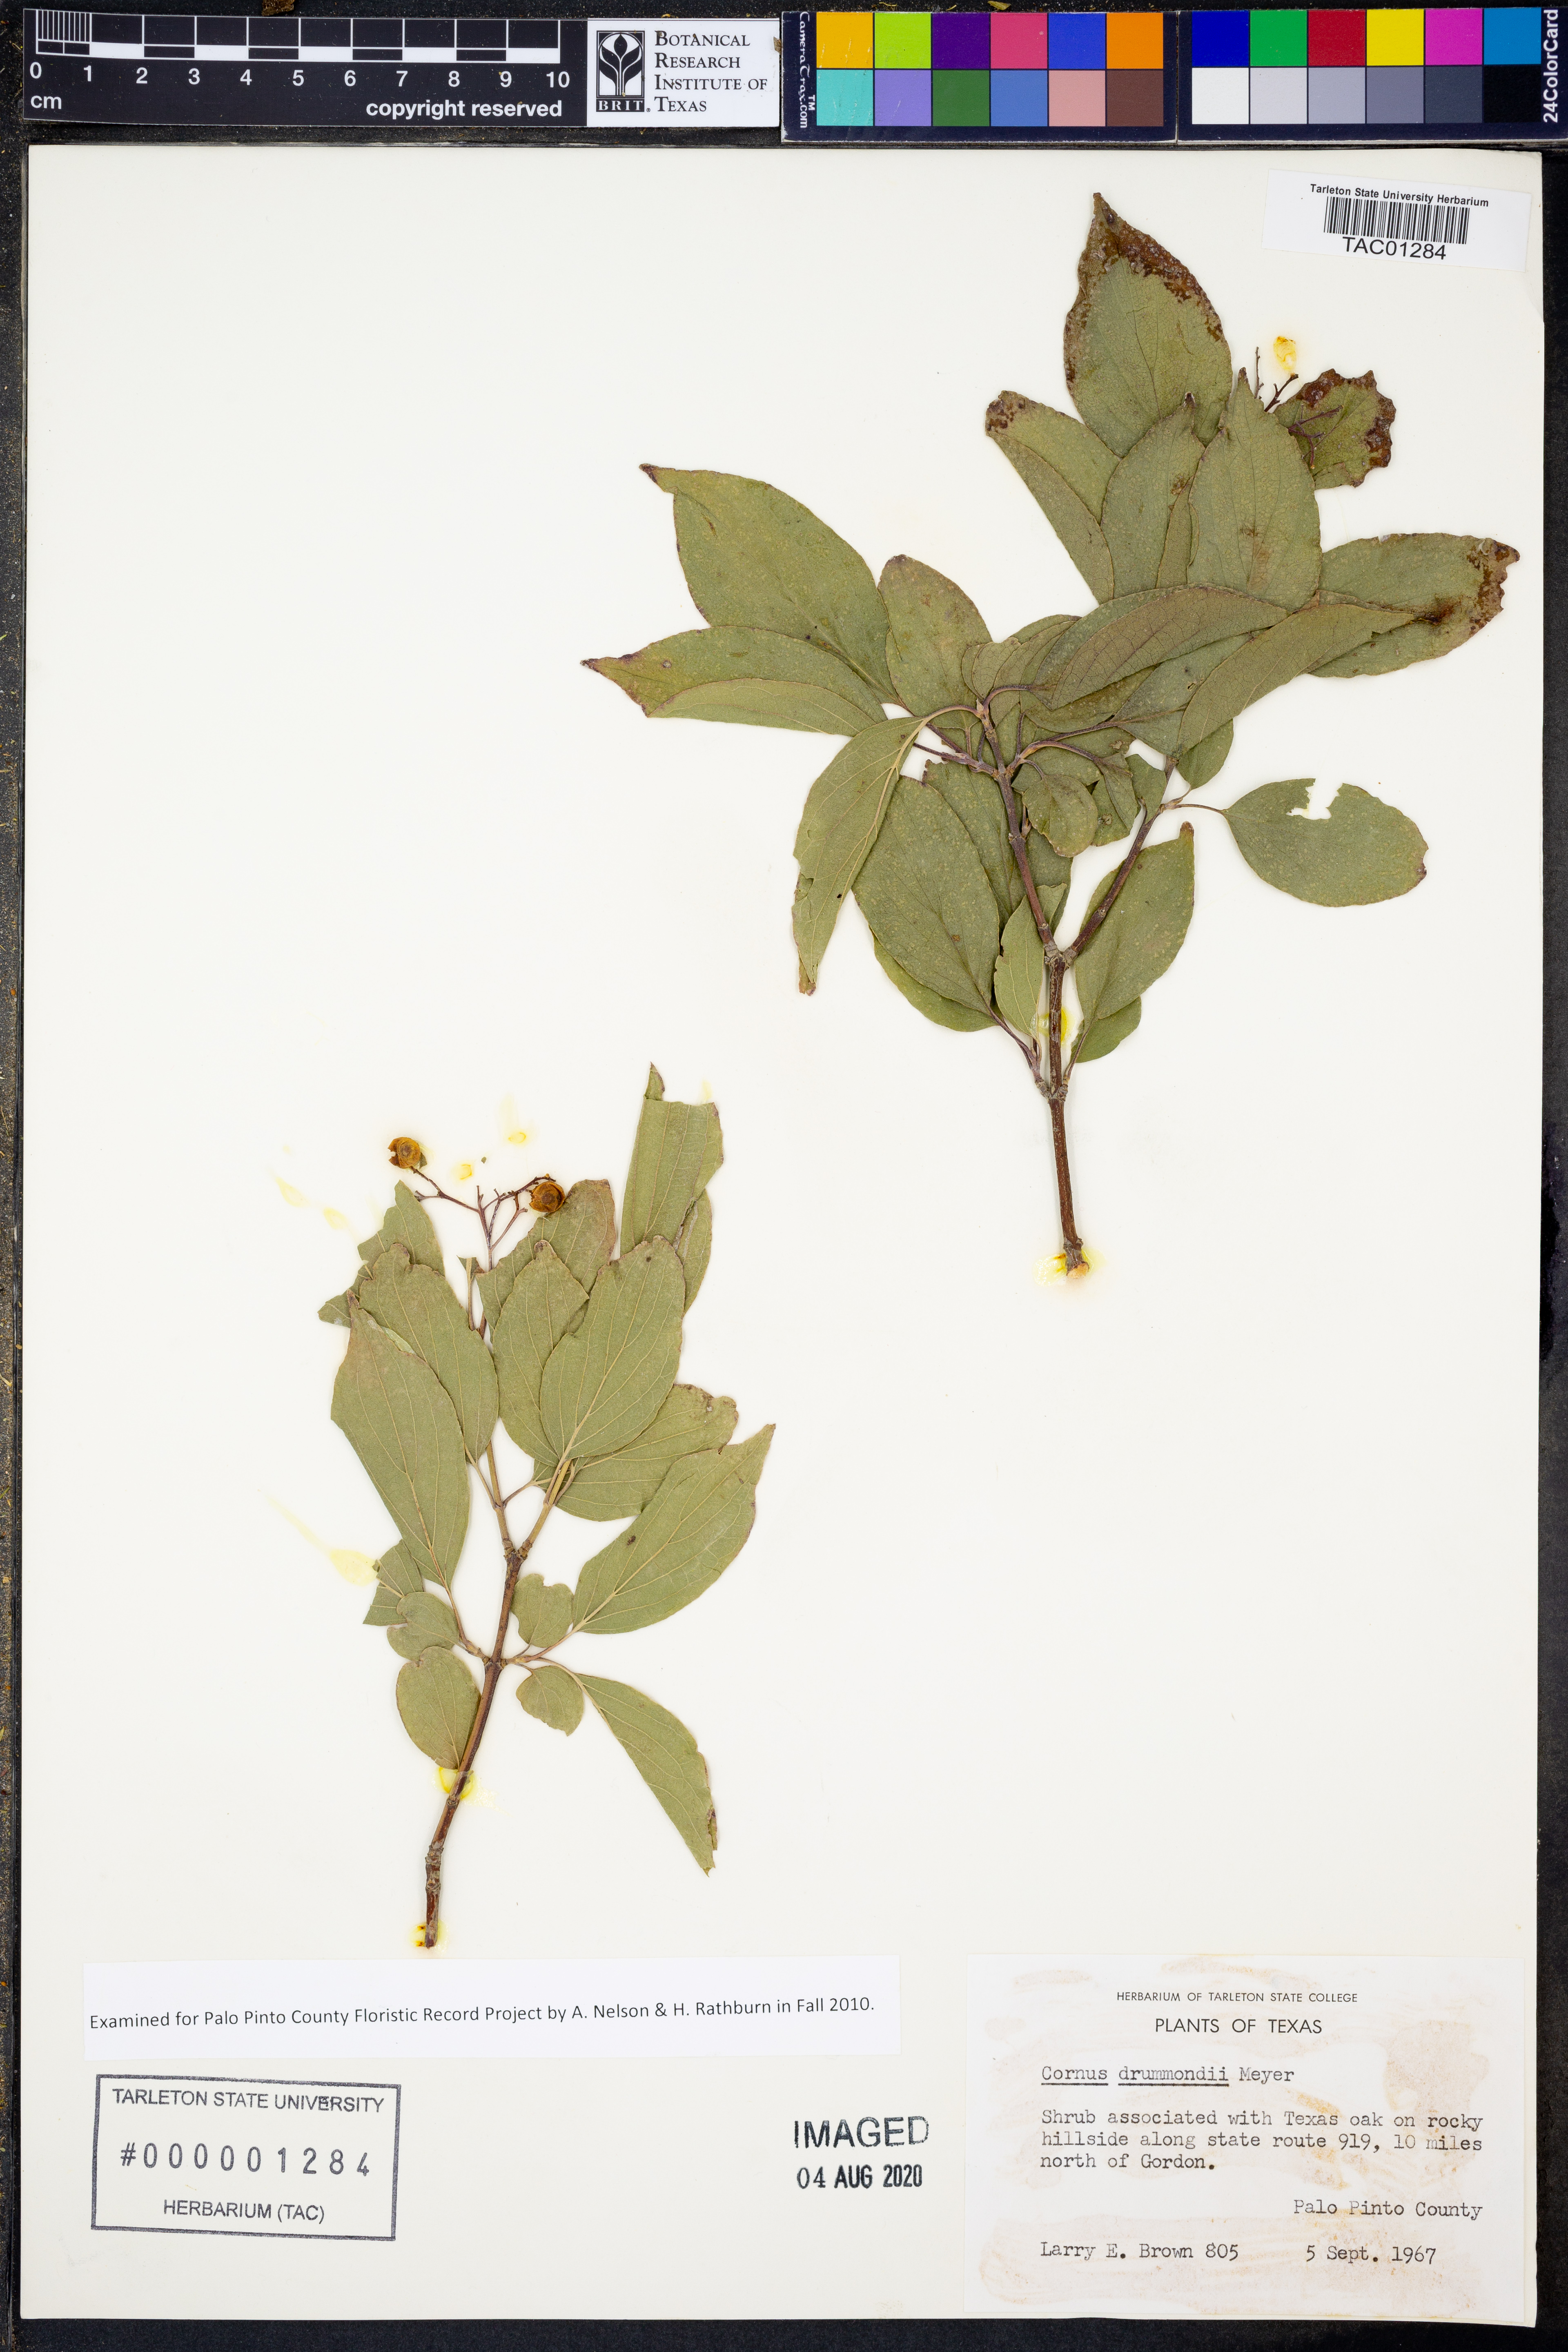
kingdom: Plantae
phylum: Tracheophyta
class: Magnoliopsida
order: Cornales
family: Cornaceae
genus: Cornus
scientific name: Cornus drummondii
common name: Rough-leaf dogwood
